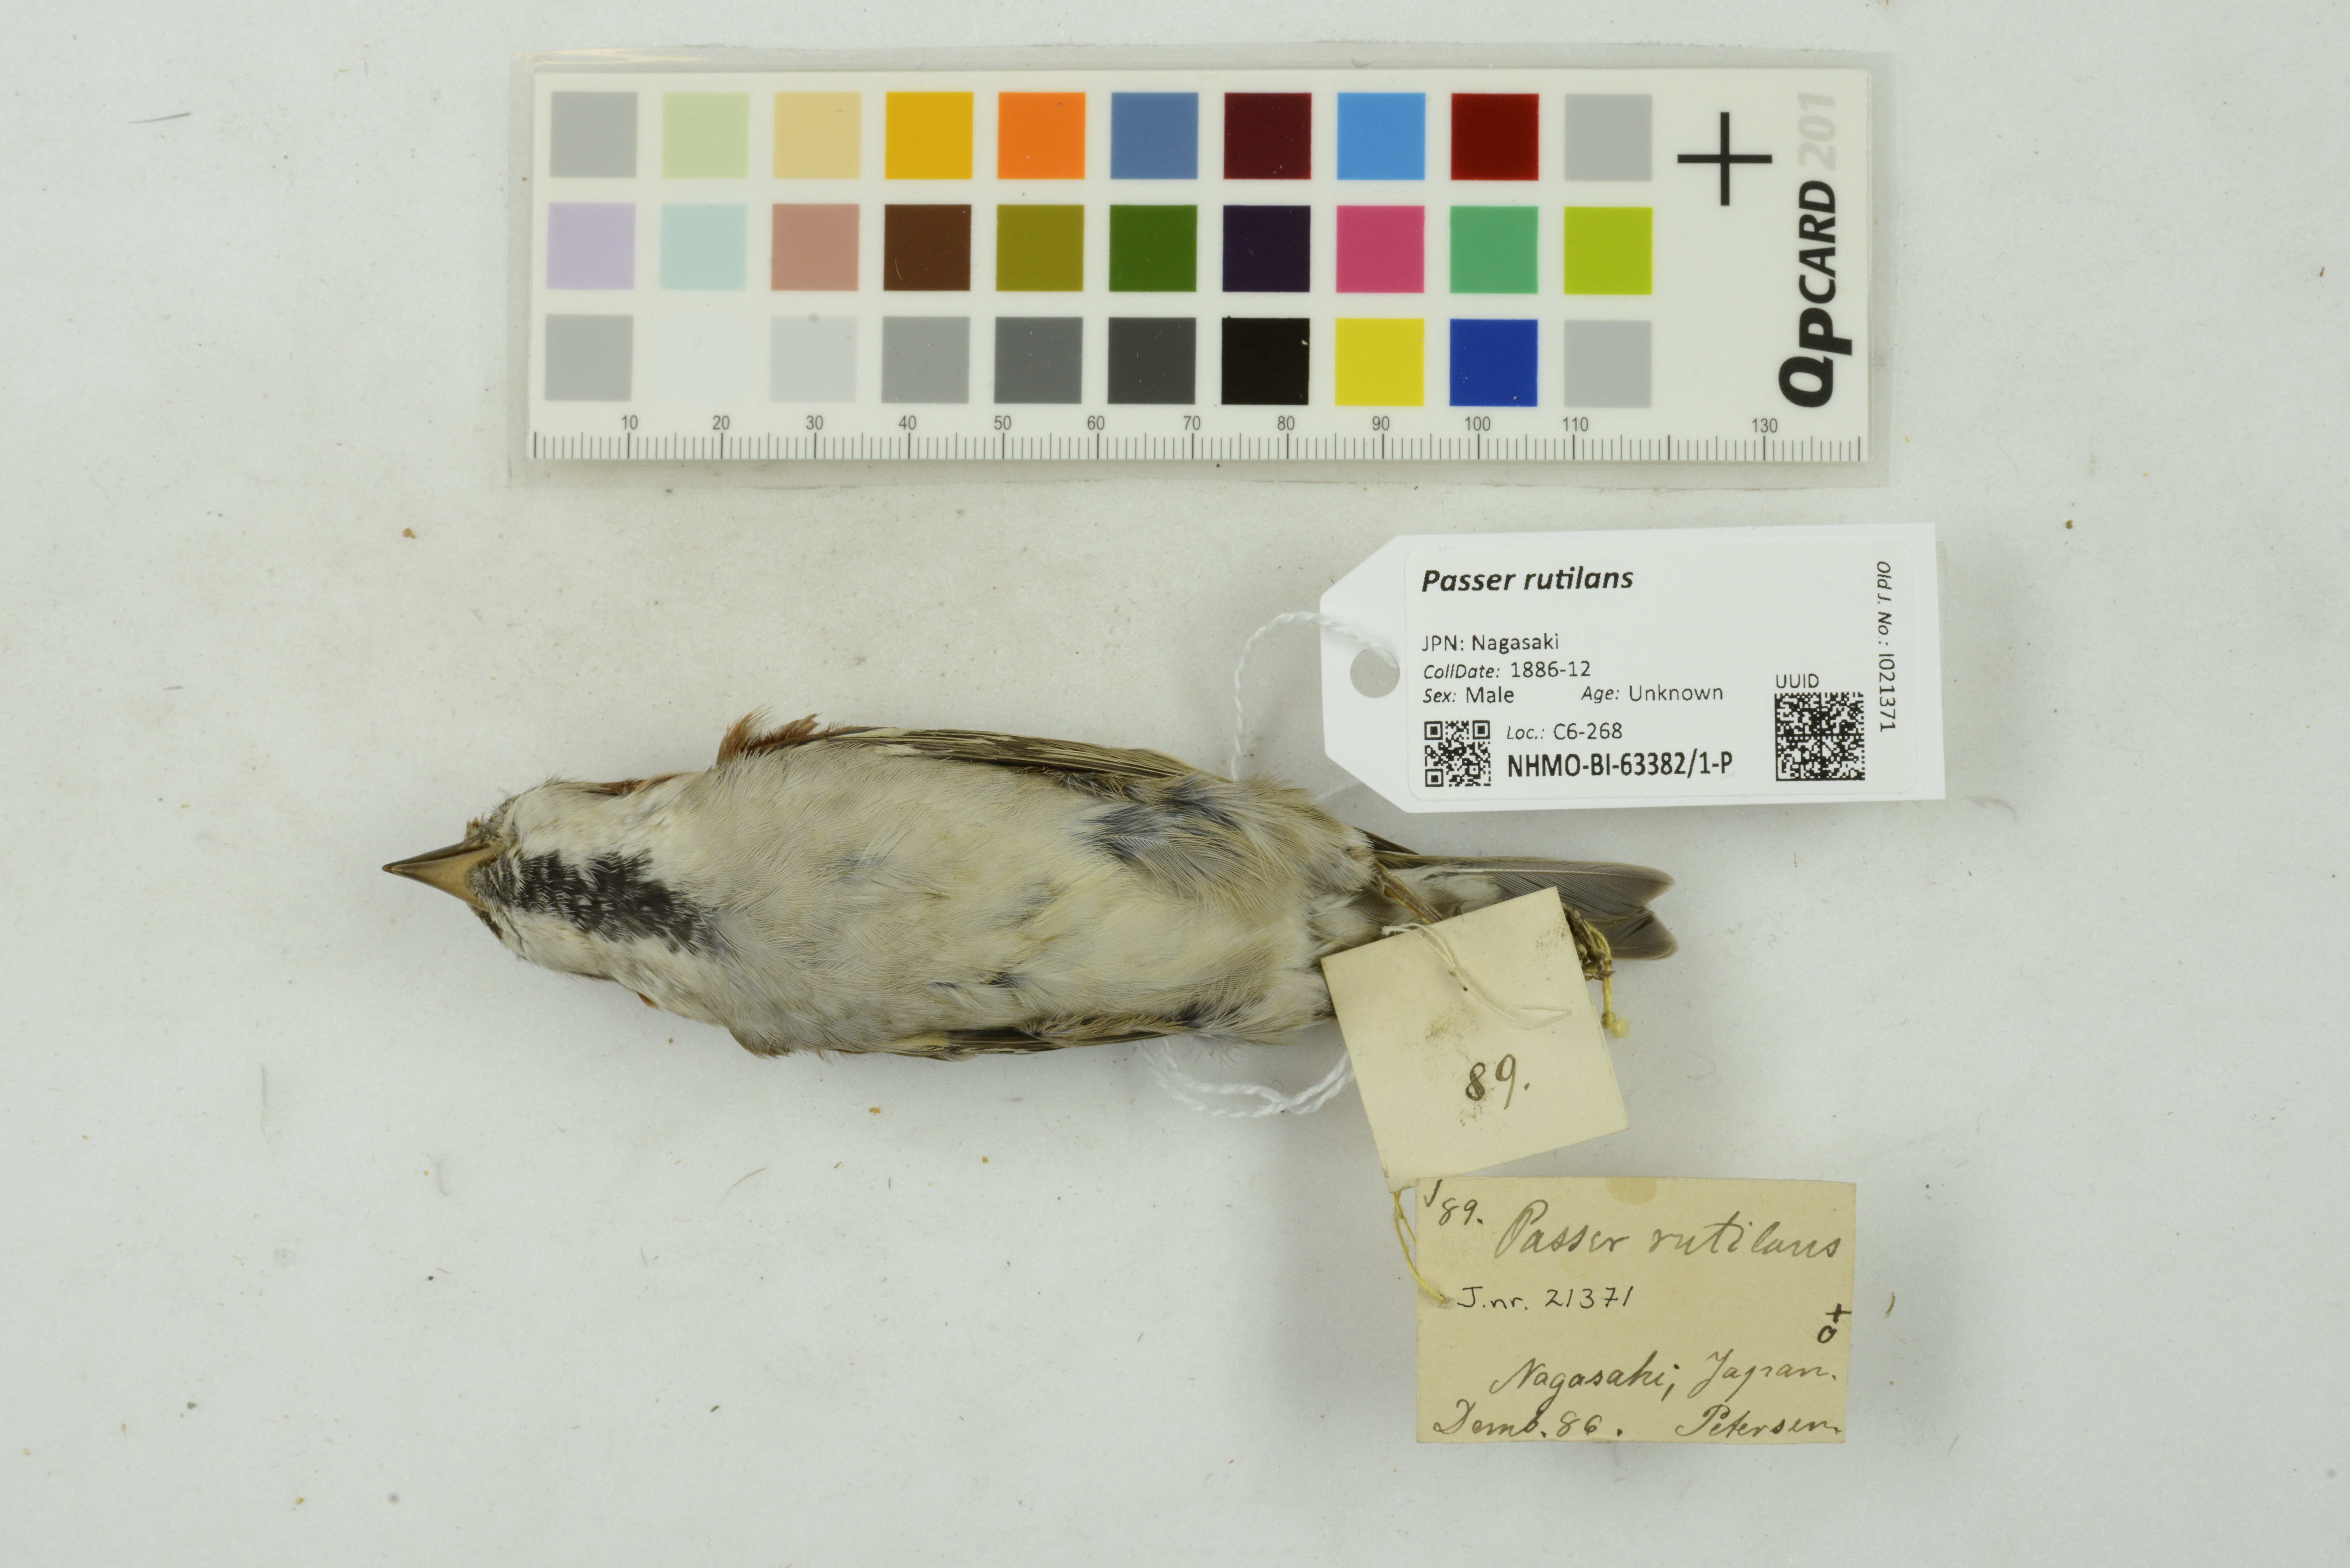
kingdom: Animalia
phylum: Chordata
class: Aves
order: Passeriformes
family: Passeridae
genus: Passer
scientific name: Passer rutilans
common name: Russet sparrow
